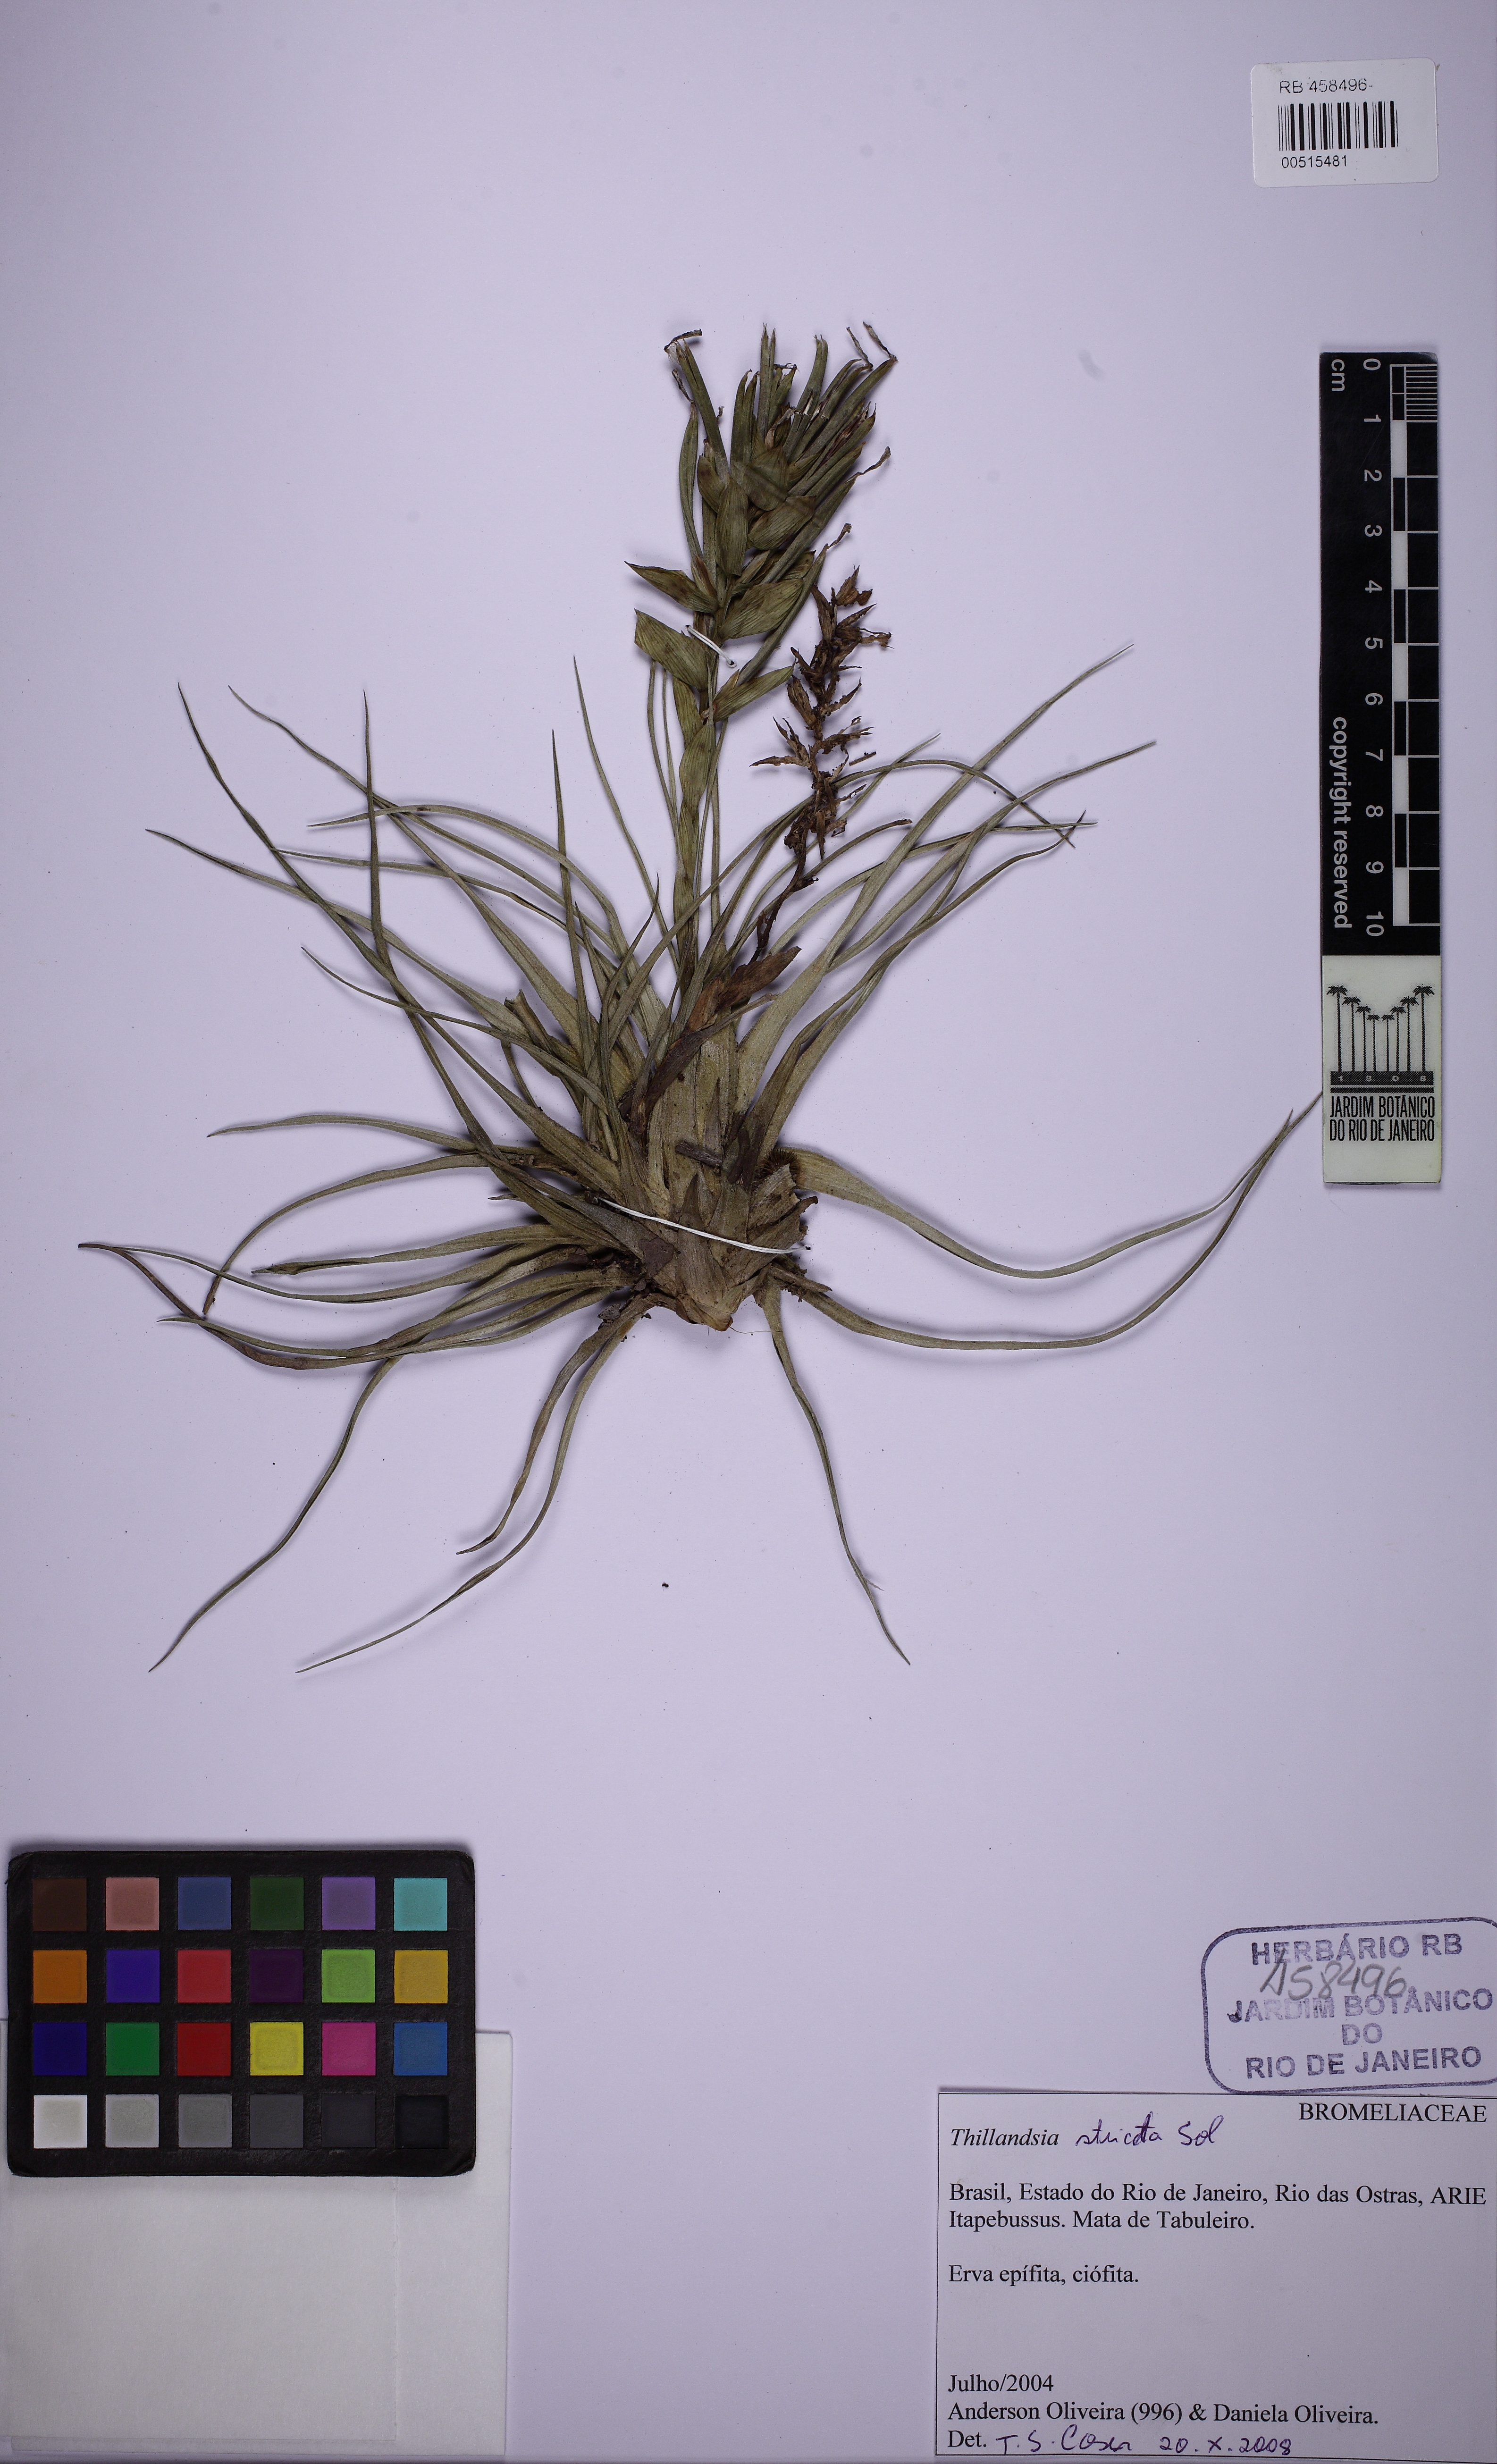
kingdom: Plantae
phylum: Tracheophyta
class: Liliopsida
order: Poales
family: Bromeliaceae
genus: Tillandsia
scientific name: Tillandsia stricta
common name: Airplant
